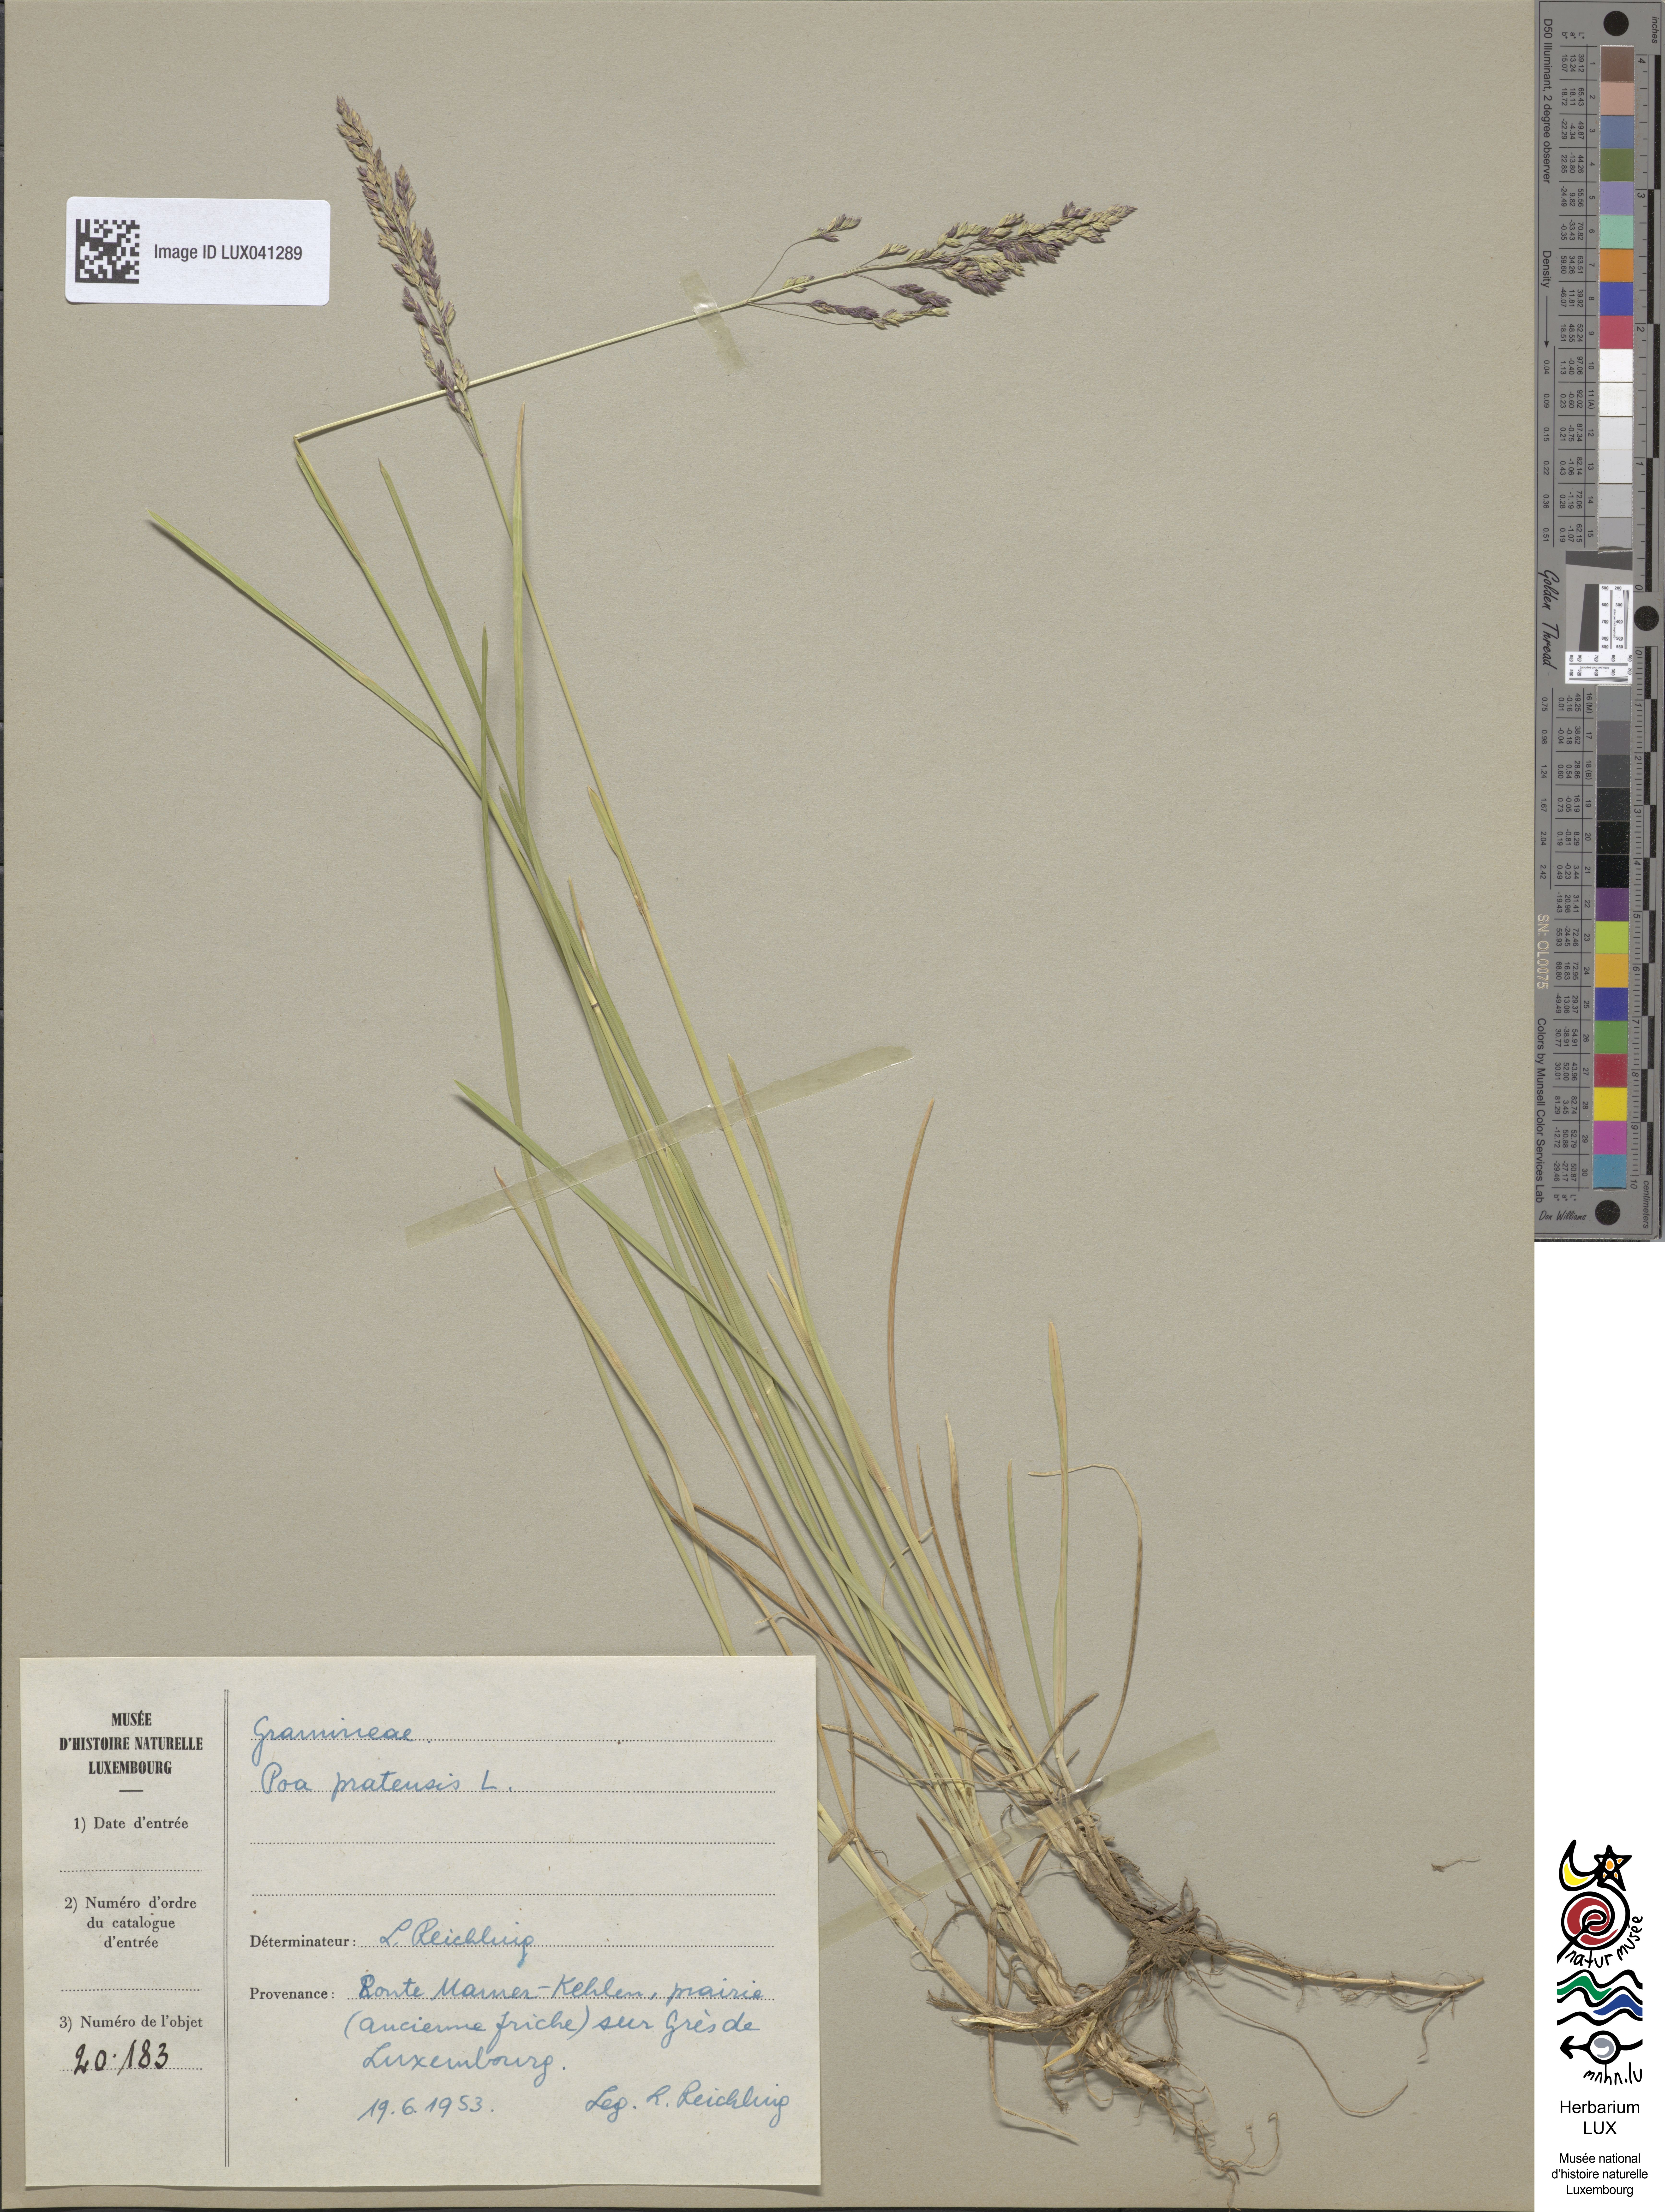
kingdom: Plantae
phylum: Tracheophyta
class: Liliopsida
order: Poales
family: Poaceae
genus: Poa
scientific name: Poa pratensis
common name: Kentucky bluegrass
